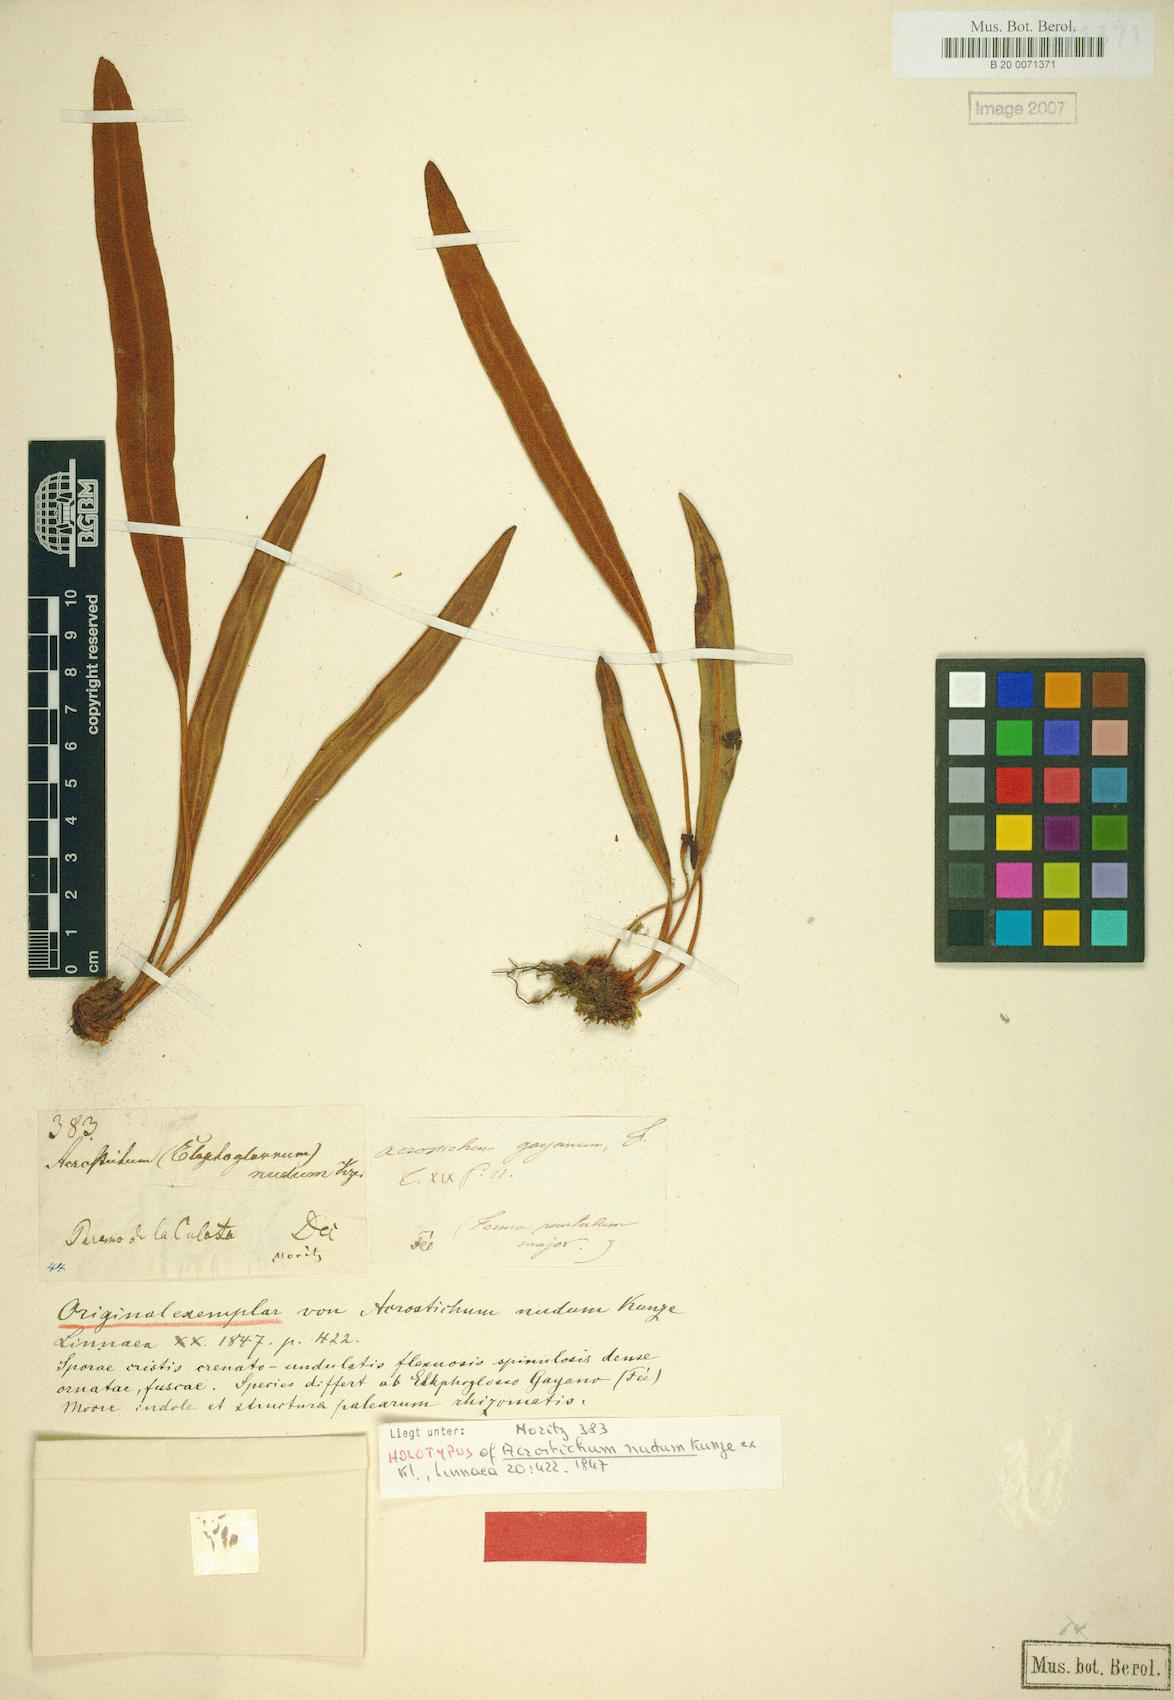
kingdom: Plantae
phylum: Tracheophyta
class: Polypodiopsida
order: Polypodiales
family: Dryopteridaceae
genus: Elaphoglossum
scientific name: Elaphoglossum
